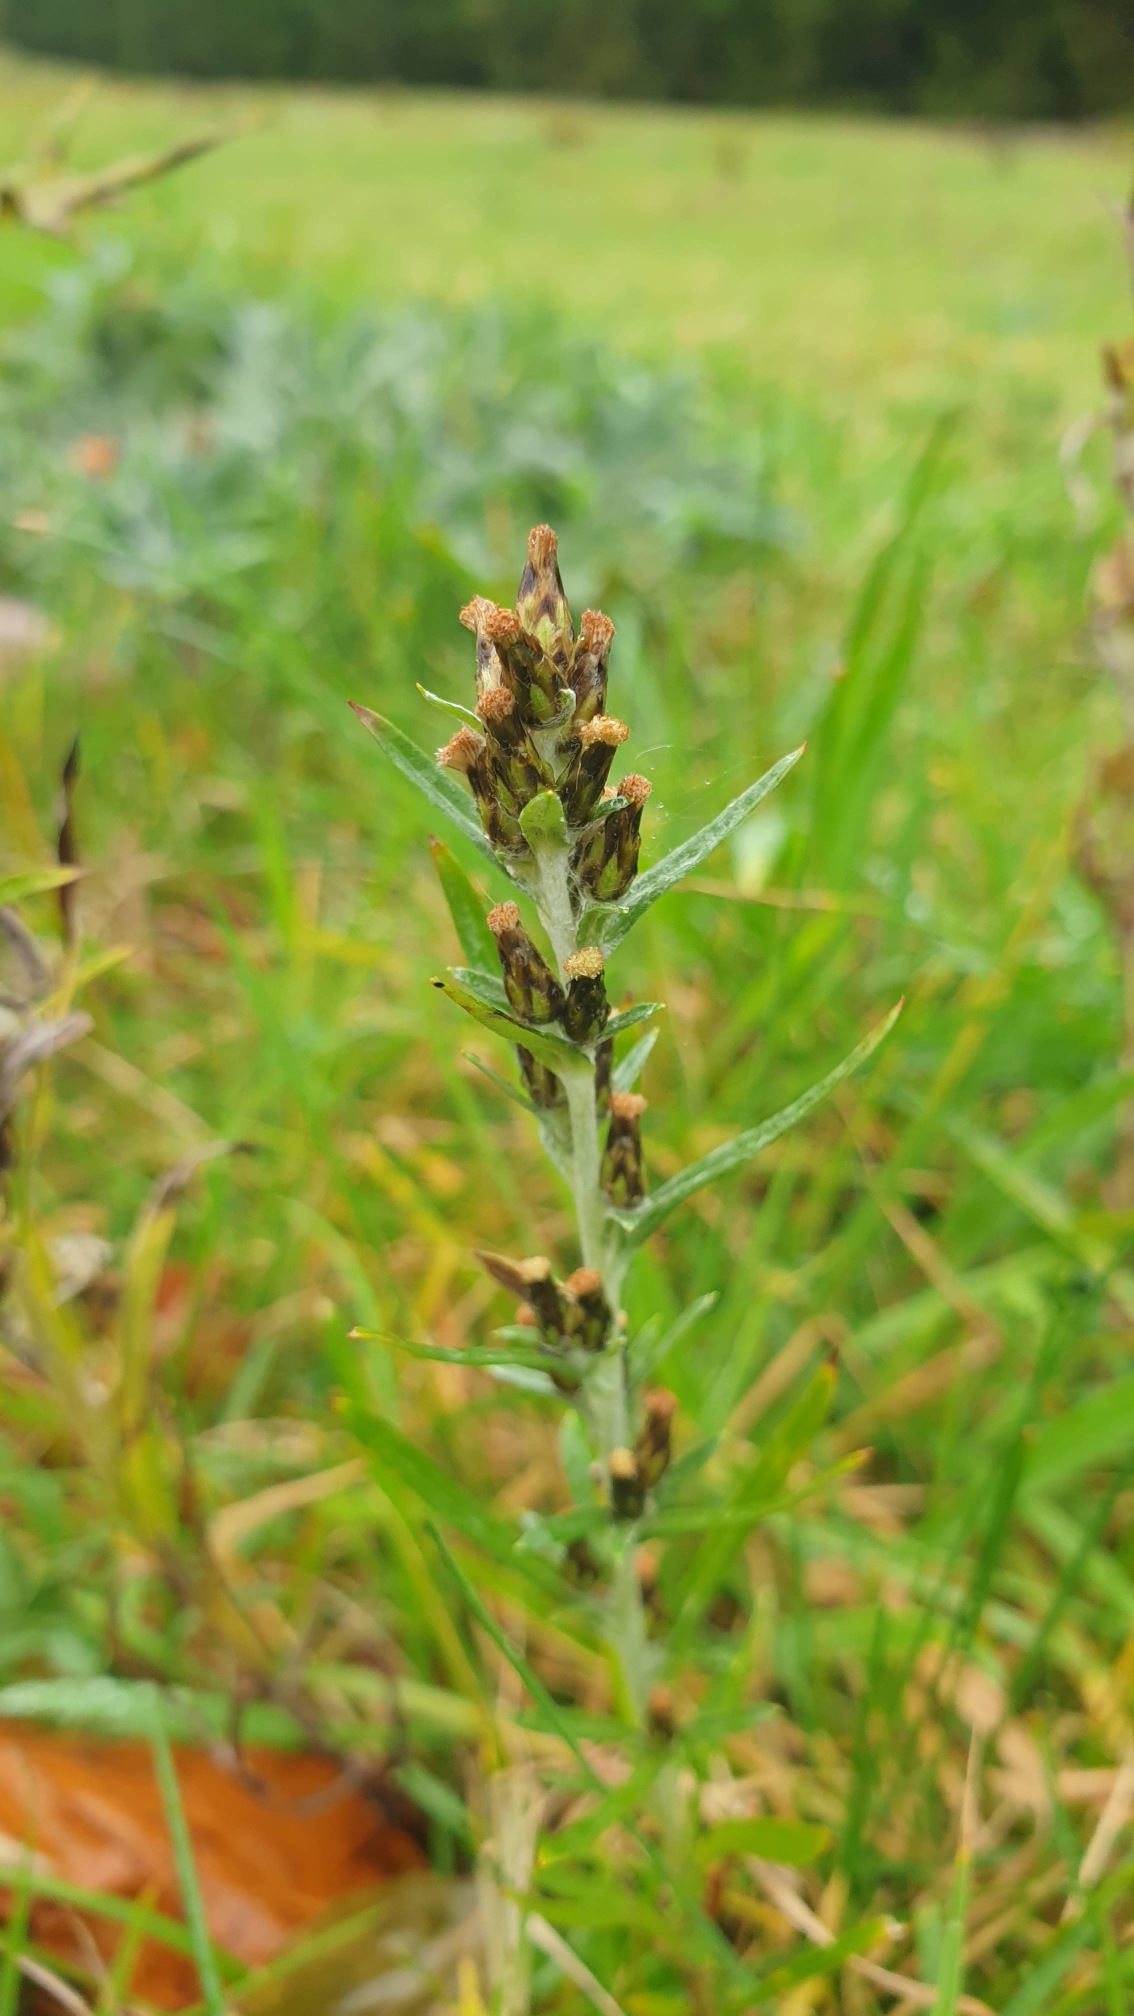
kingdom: Plantae
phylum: Tracheophyta
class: Magnoliopsida
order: Asterales
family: Asteraceae
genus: Omalotheca
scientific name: Omalotheca sylvatica
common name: Rank evighedsblomst
